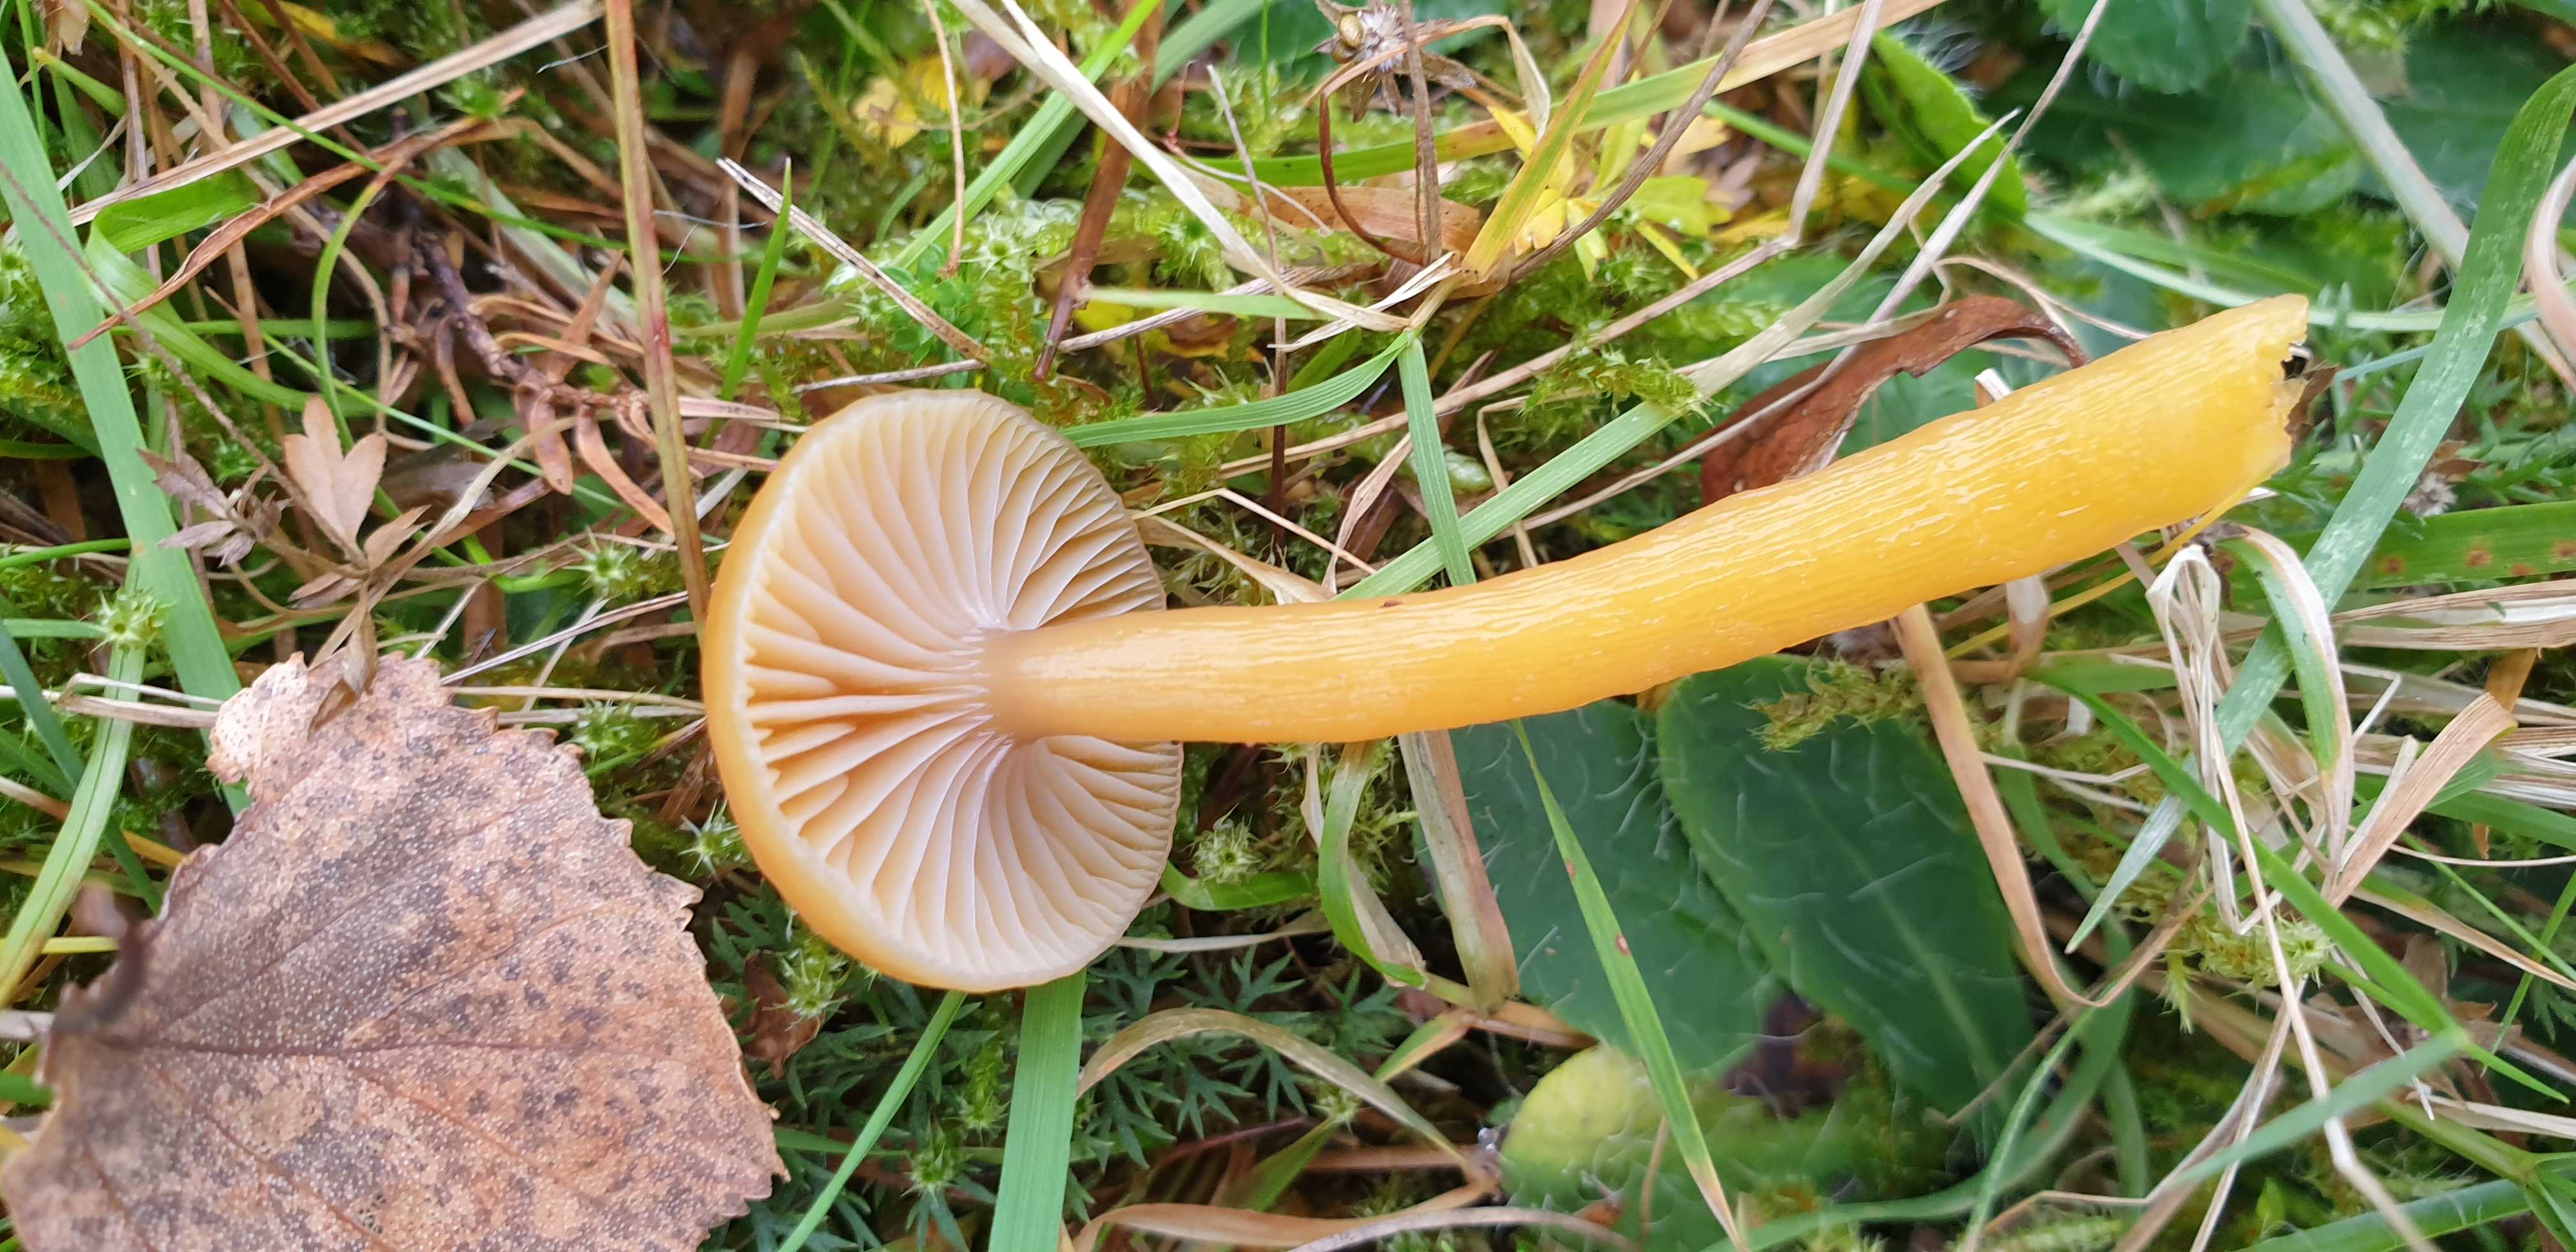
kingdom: Fungi
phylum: Basidiomycota
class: Agaricomycetes
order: Agaricales
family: Hygrophoraceae
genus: Gliophorus
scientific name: Gliophorus laetus
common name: brusk-vokshat
